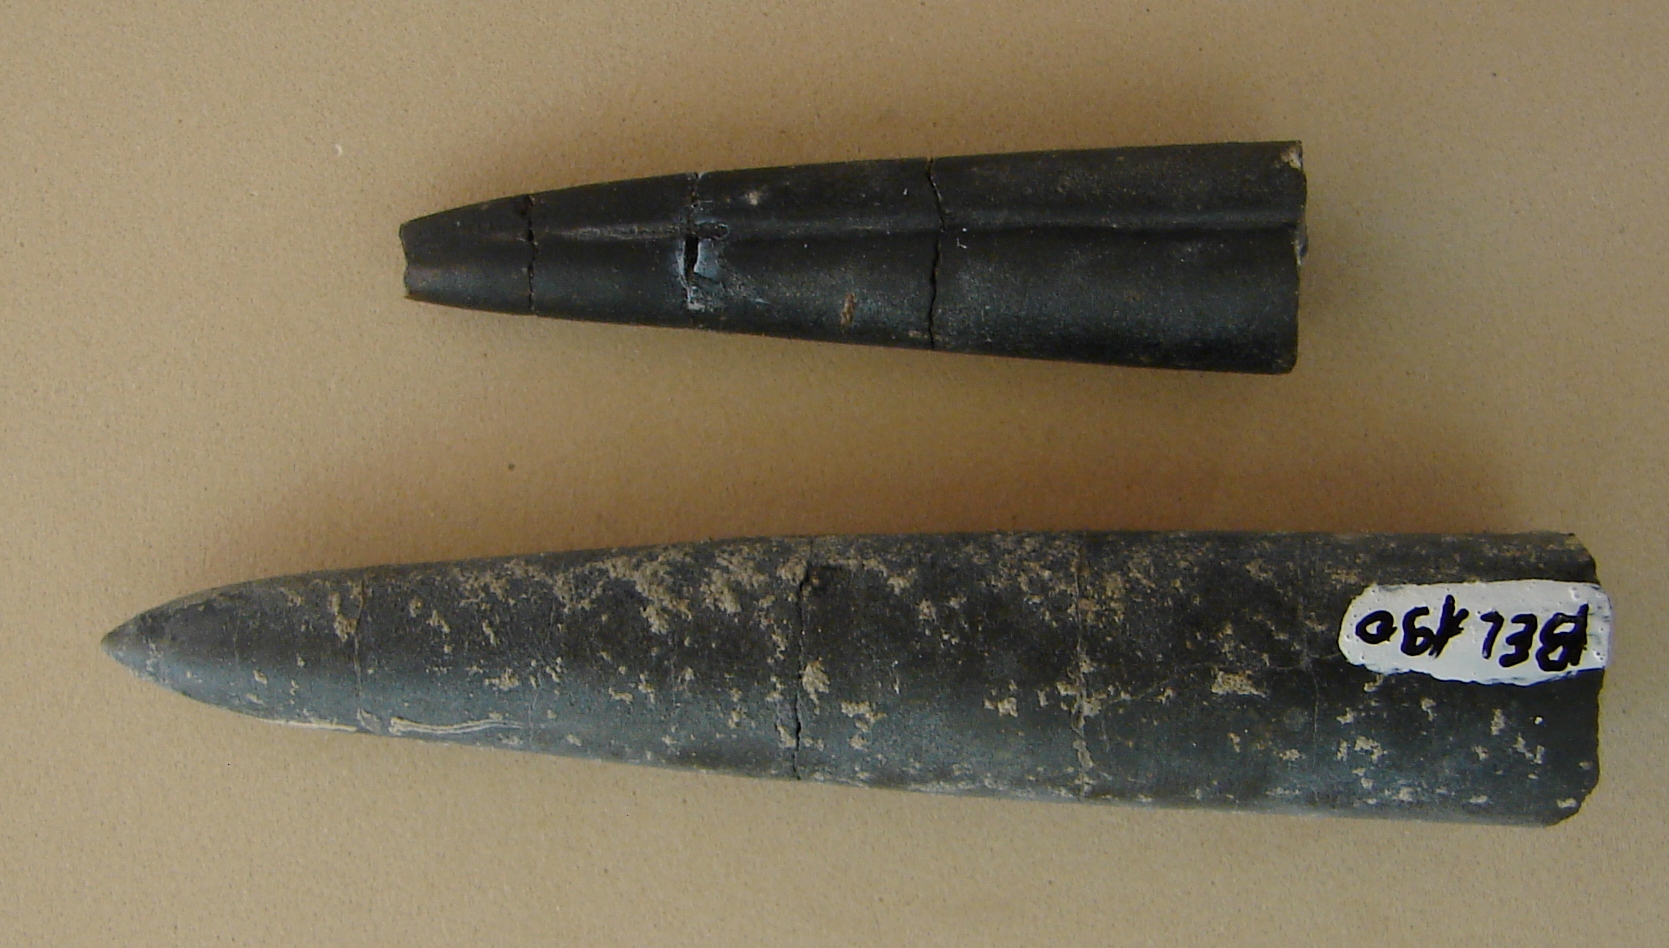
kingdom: Animalia
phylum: Mollusca
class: Cephalopoda
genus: Conobelemnopsis
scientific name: Conobelemnopsis
